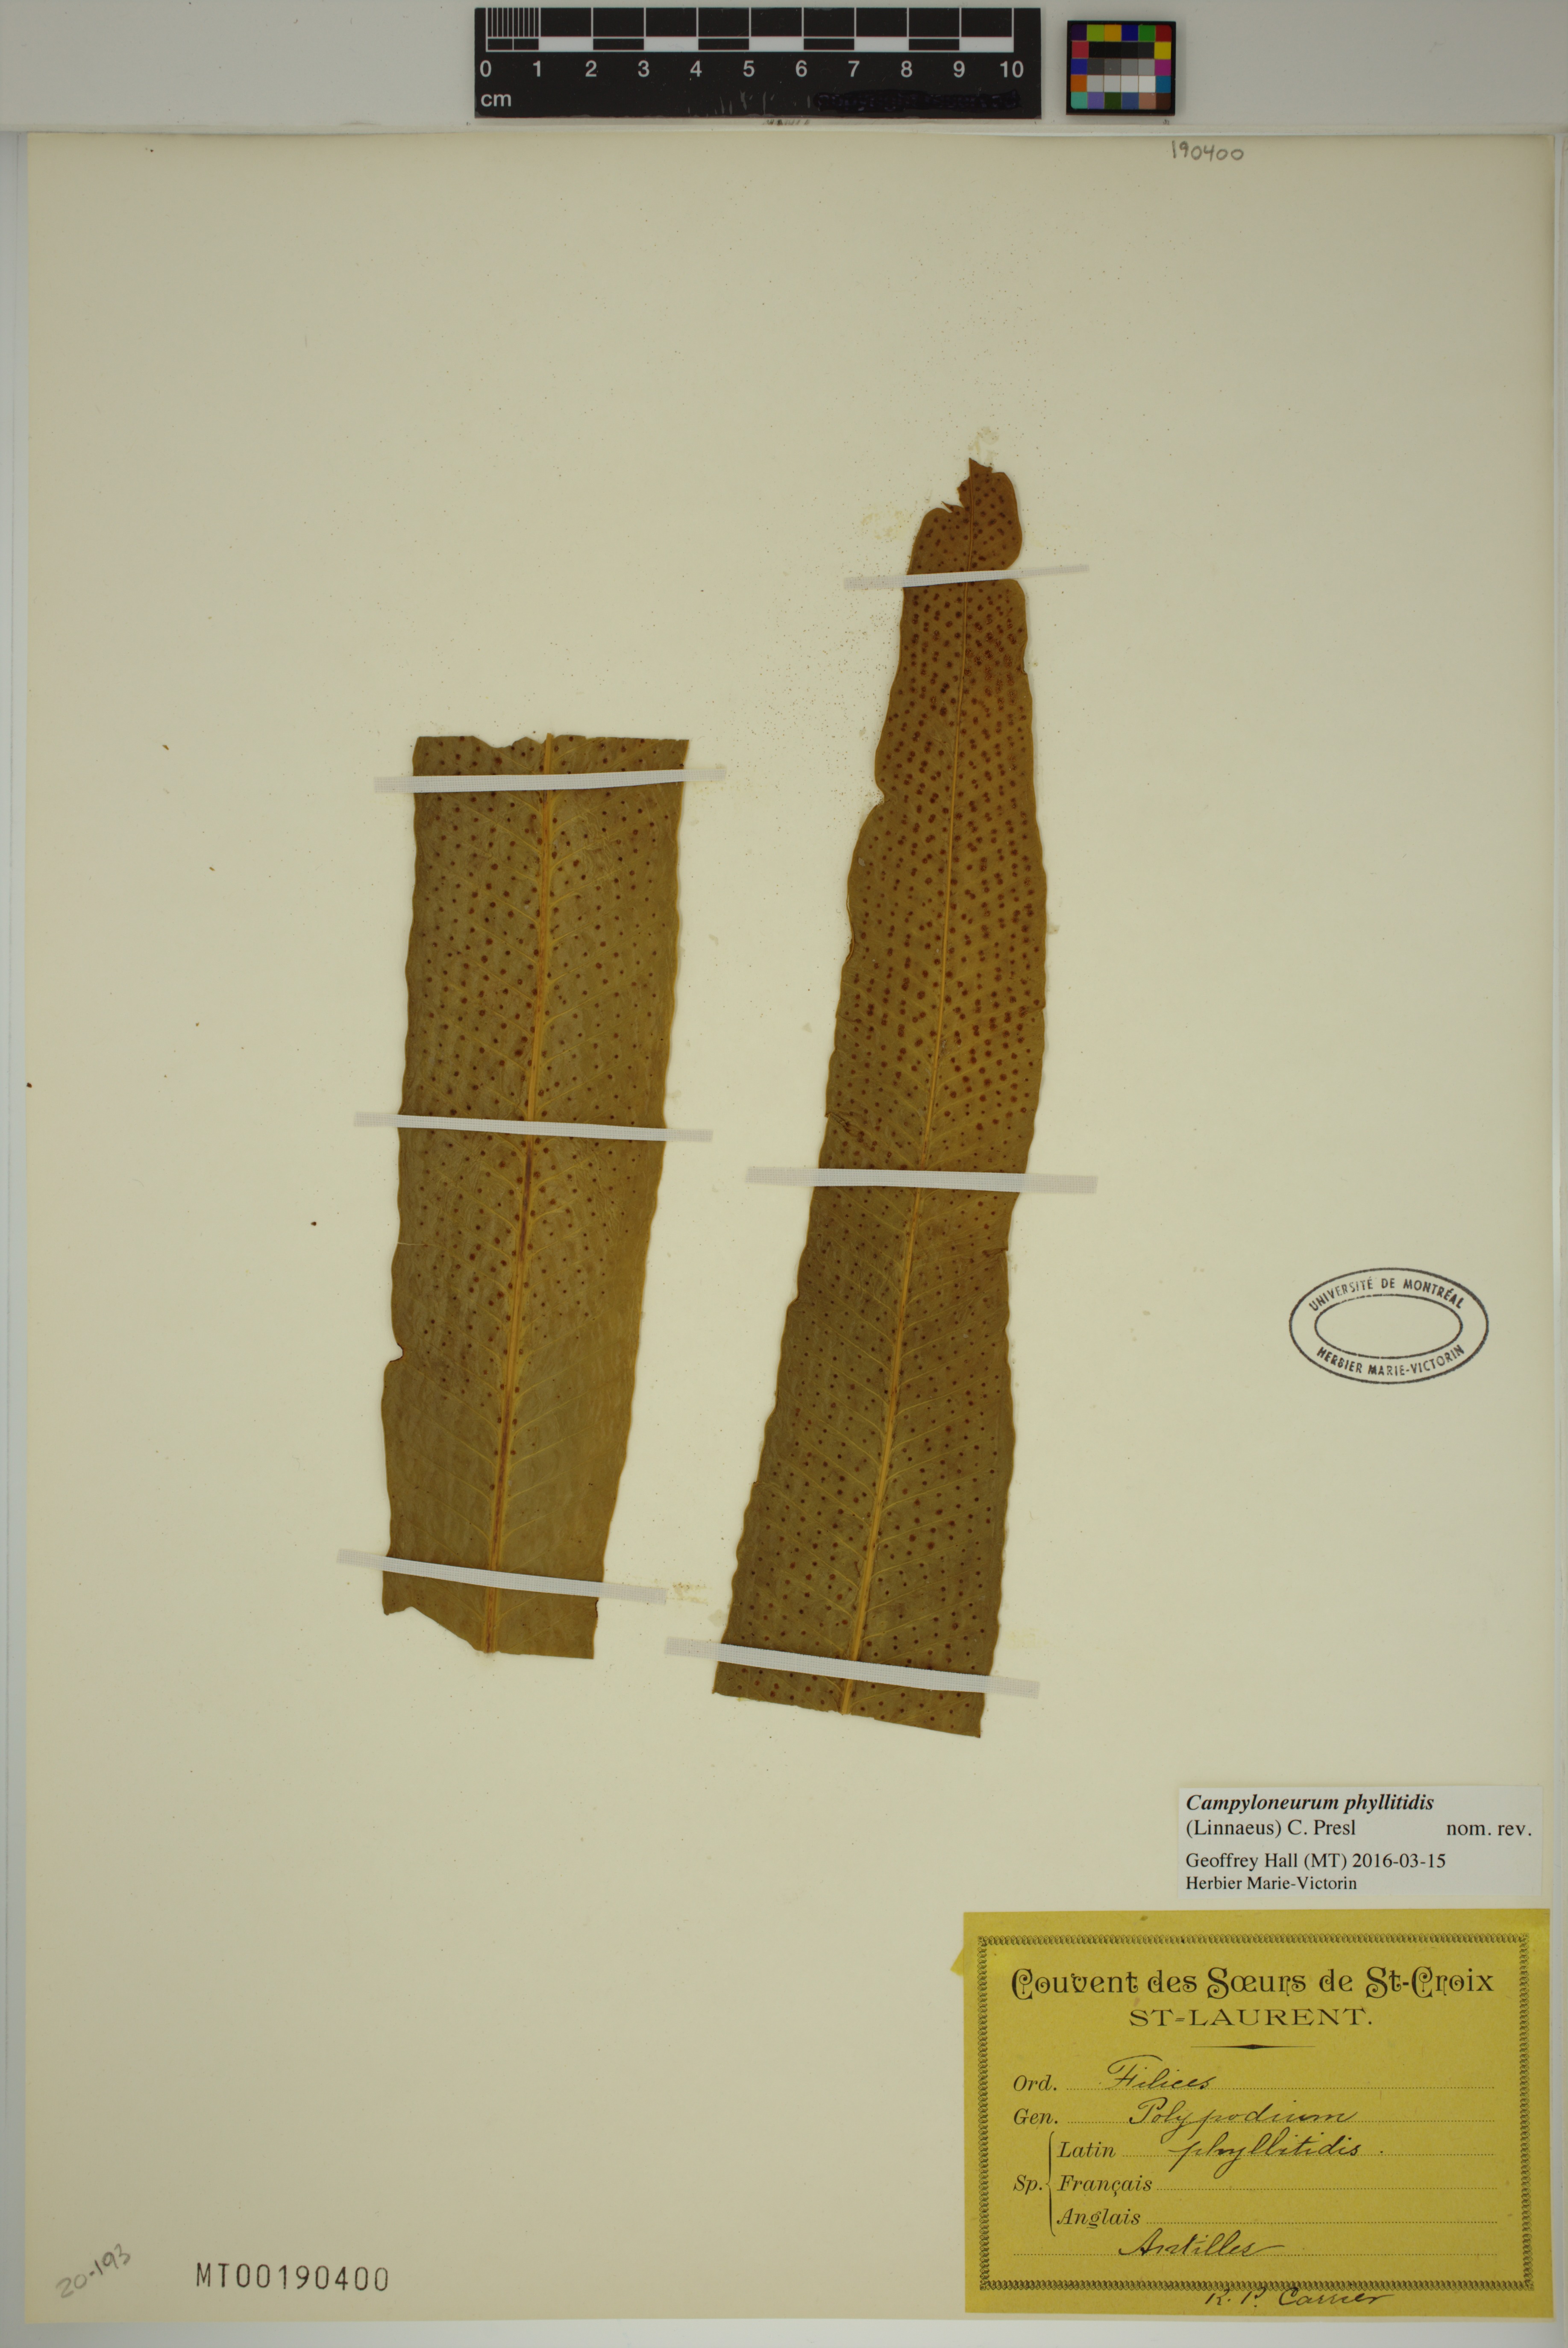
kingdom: Plantae
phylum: Tracheophyta
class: Polypodiopsida
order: Polypodiales
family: Polypodiaceae
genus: Campyloneurum
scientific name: Campyloneurum phyllitidis
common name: Cow-tongue fern
